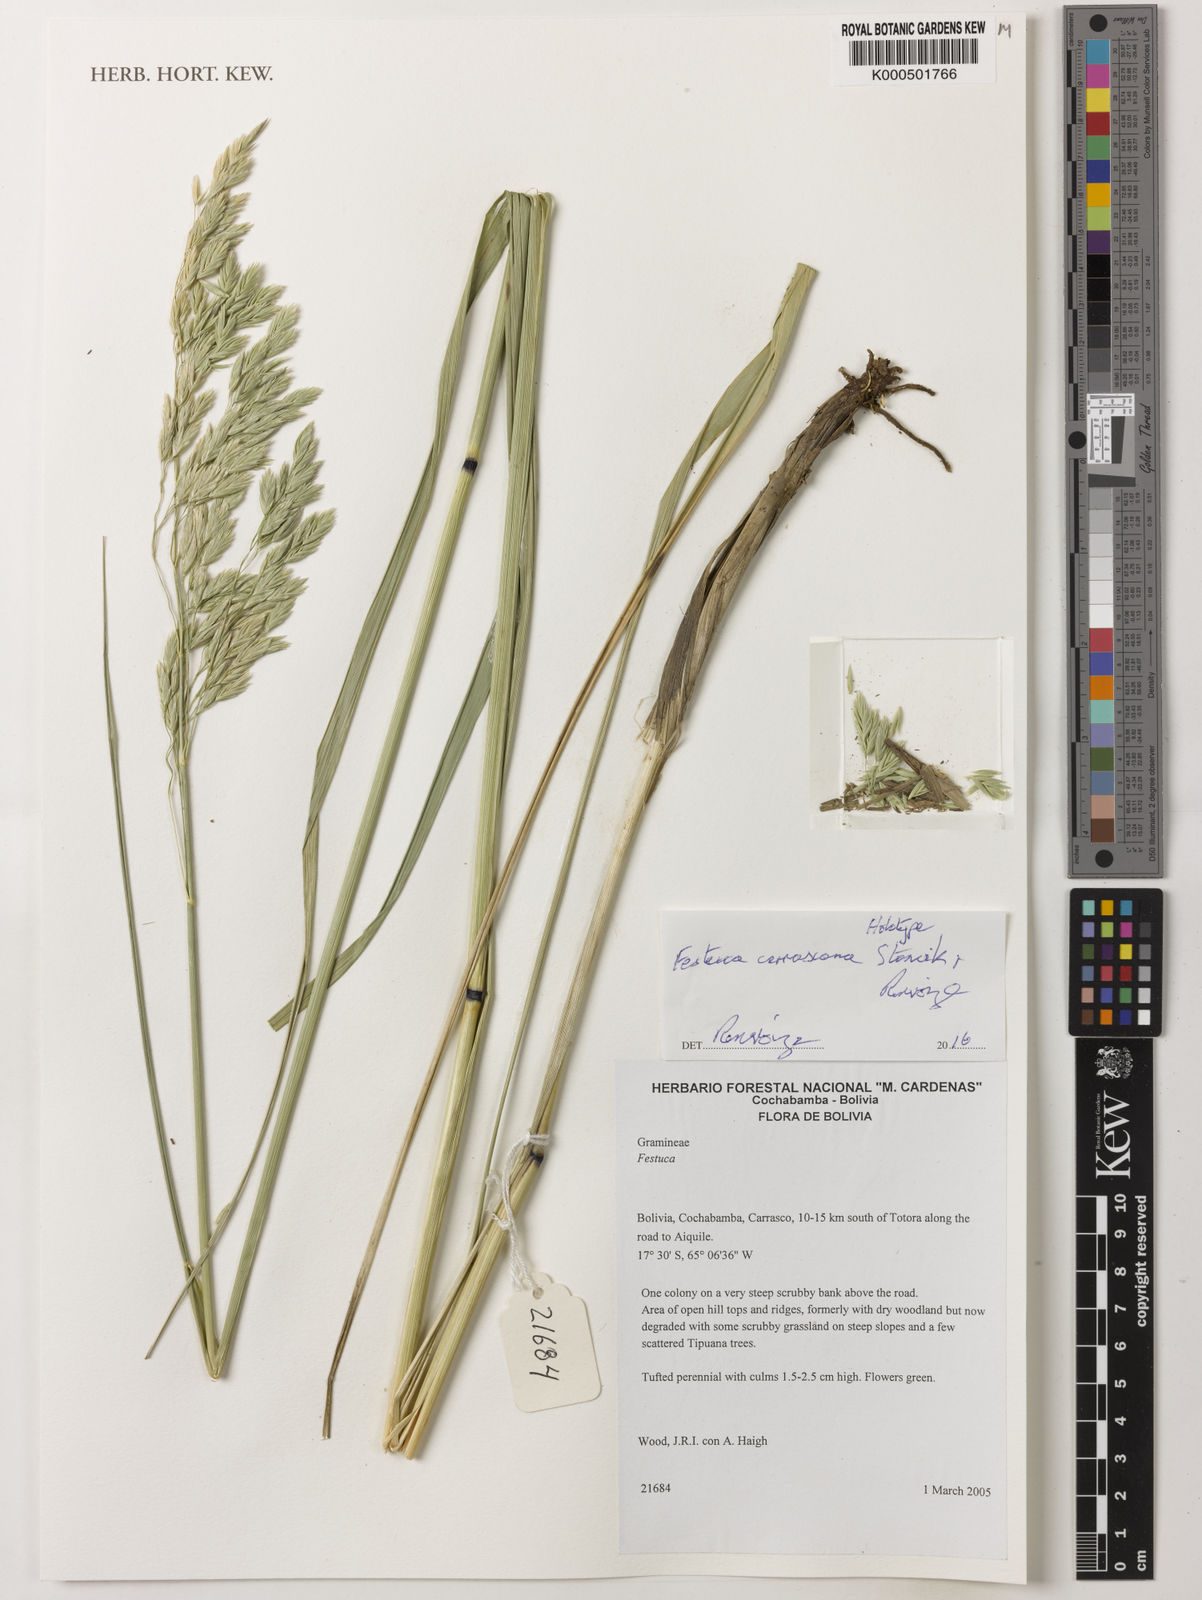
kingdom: Plantae
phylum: Tracheophyta
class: Liliopsida
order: Poales
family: Poaceae
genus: Festuca
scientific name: Festuca
